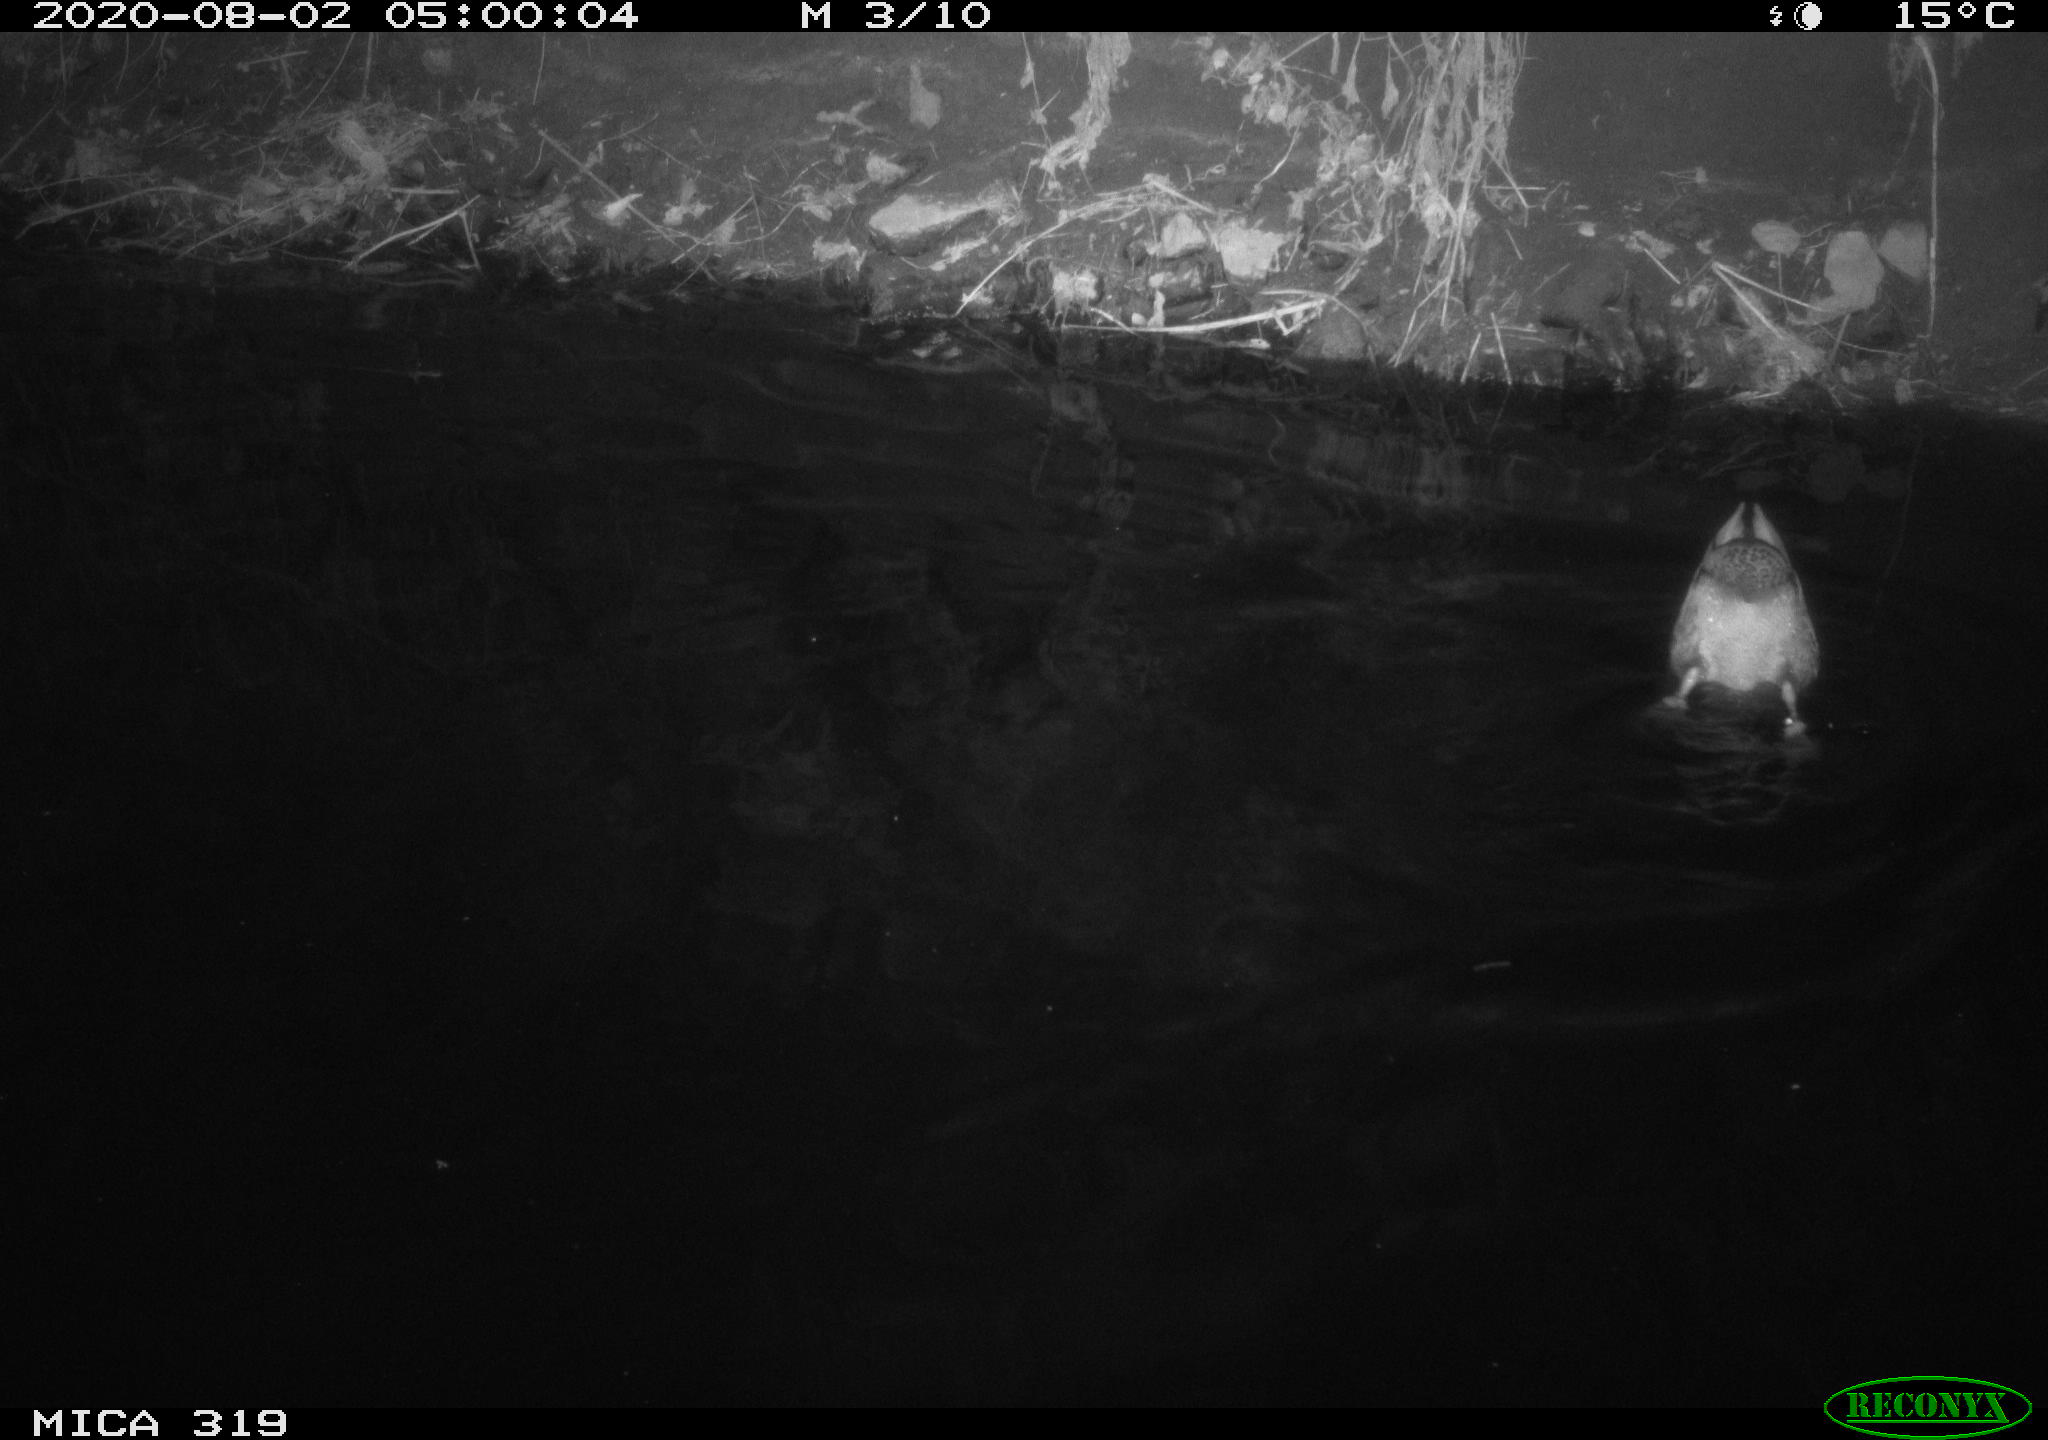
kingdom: Animalia
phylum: Chordata
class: Aves
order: Anseriformes
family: Anatidae
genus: Anas
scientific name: Anas platyrhynchos
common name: Mallard
